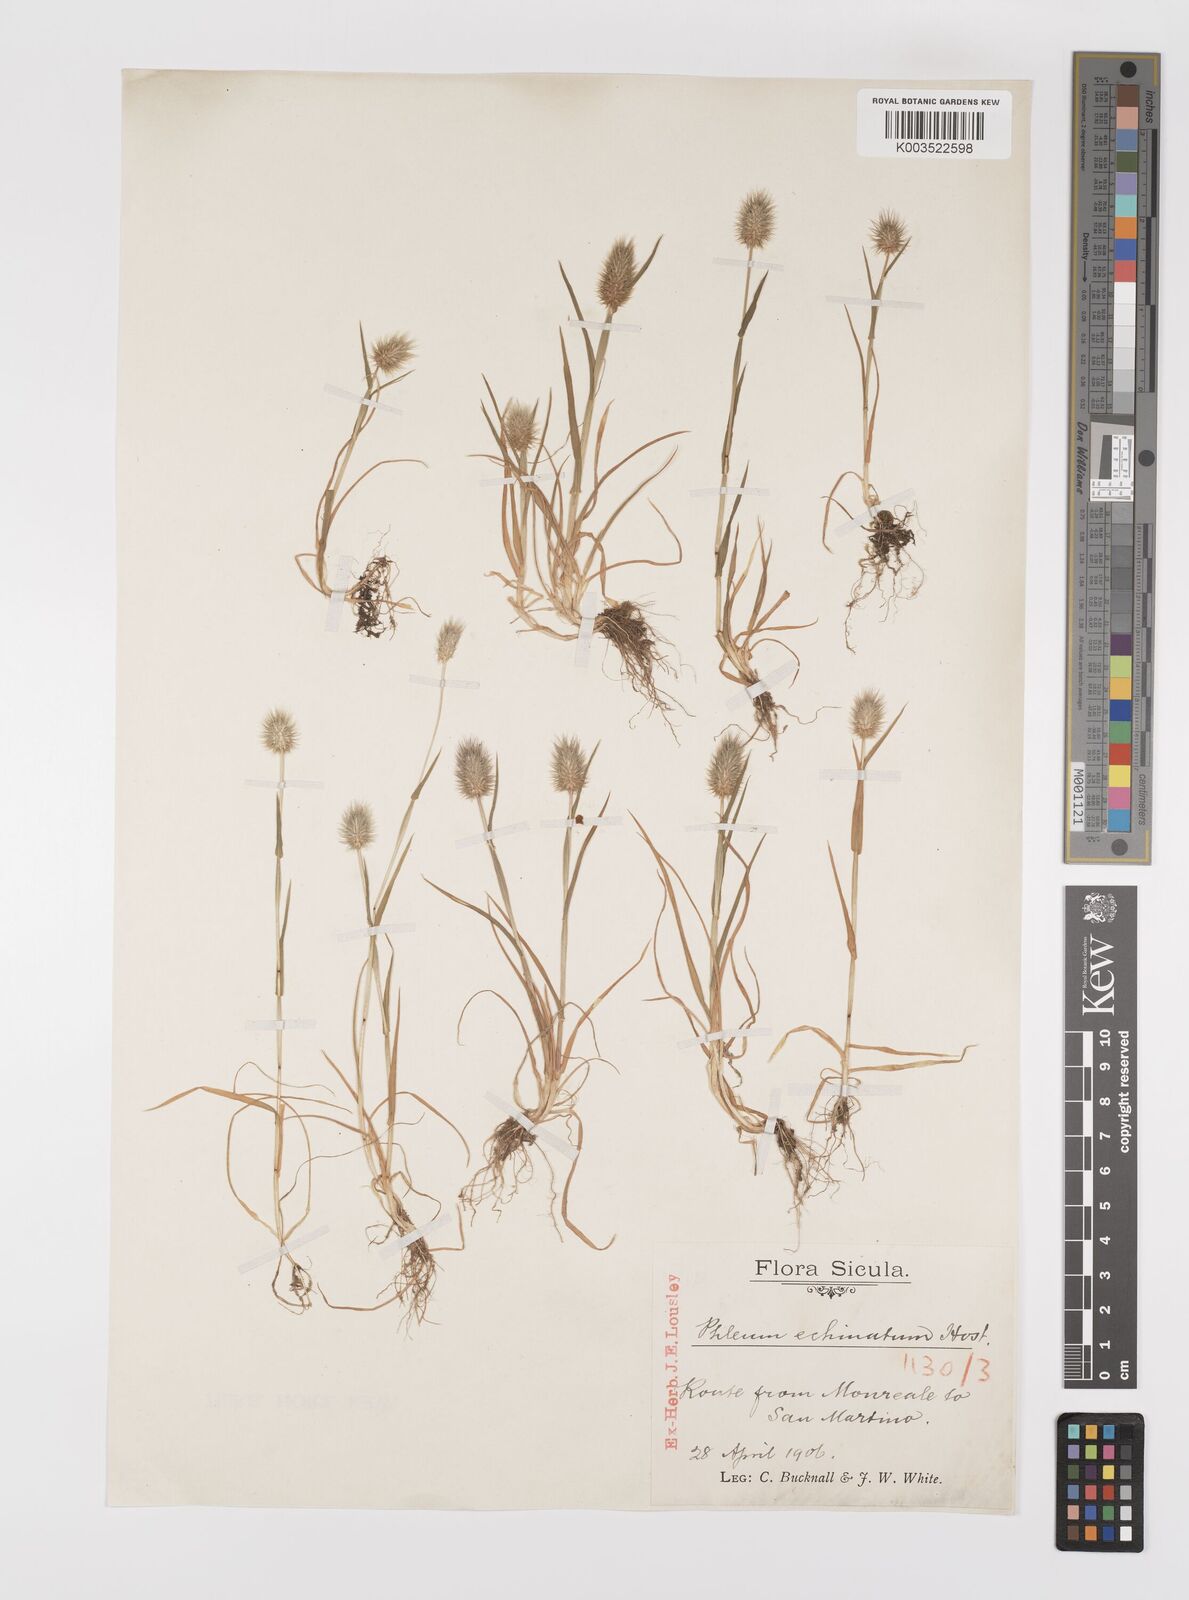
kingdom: Plantae
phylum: Tracheophyta
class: Liliopsida
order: Poales
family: Poaceae
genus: Phleum
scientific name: Phleum echinatum
